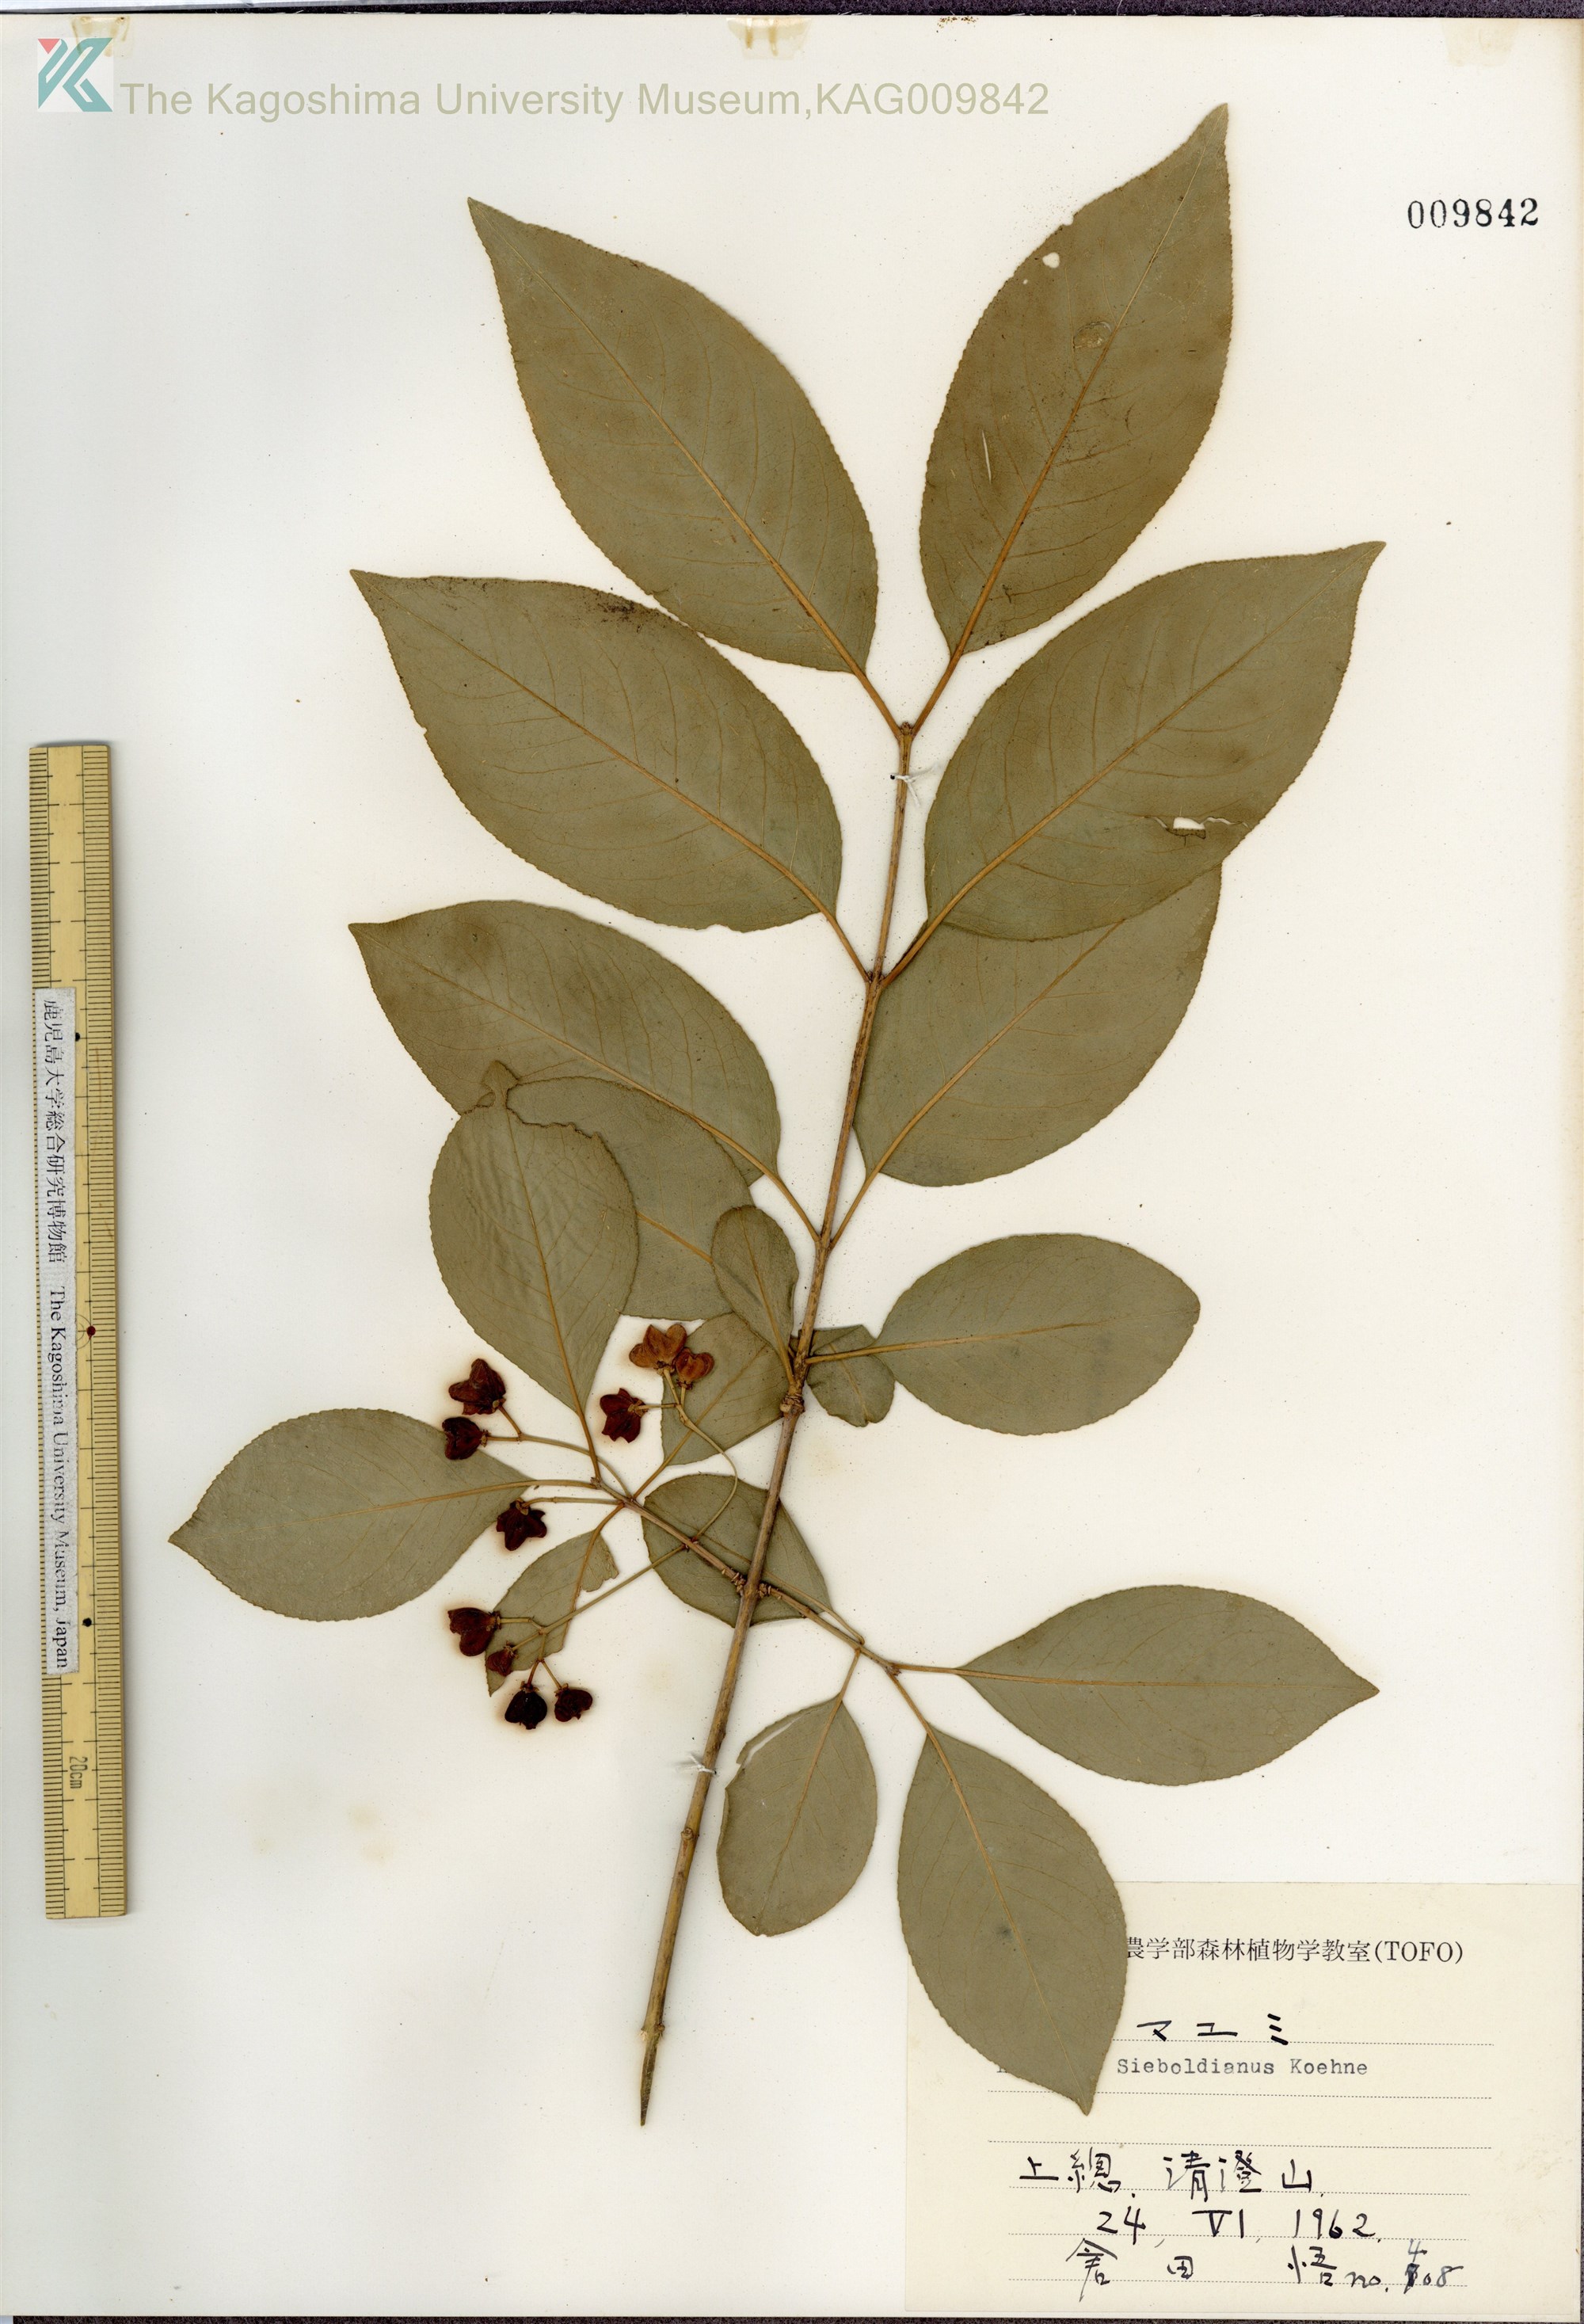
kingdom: Plantae
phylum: Tracheophyta
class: Magnoliopsida
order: Celastrales
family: Celastraceae
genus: Euonymus
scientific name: Euonymus hamiltonianus
